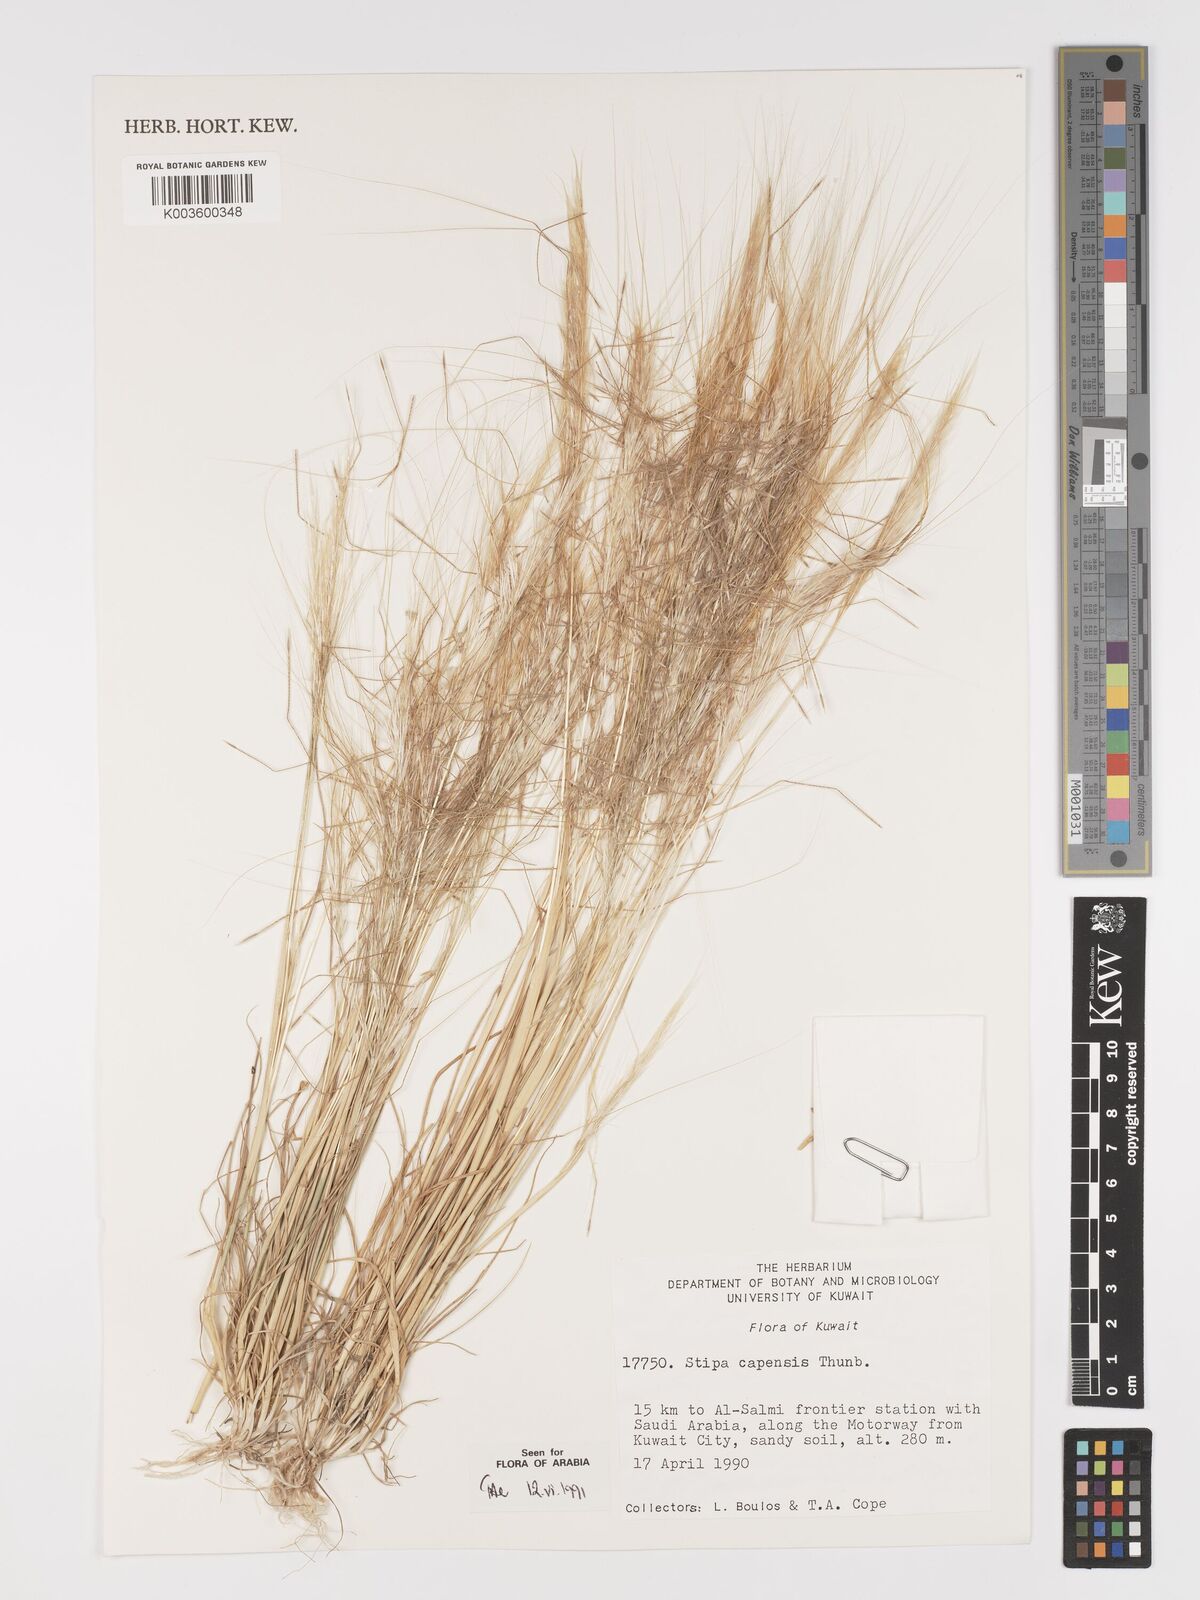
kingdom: Plantae
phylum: Tracheophyta
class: Liliopsida
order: Poales
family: Poaceae
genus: Stipellula
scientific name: Stipellula capensis
